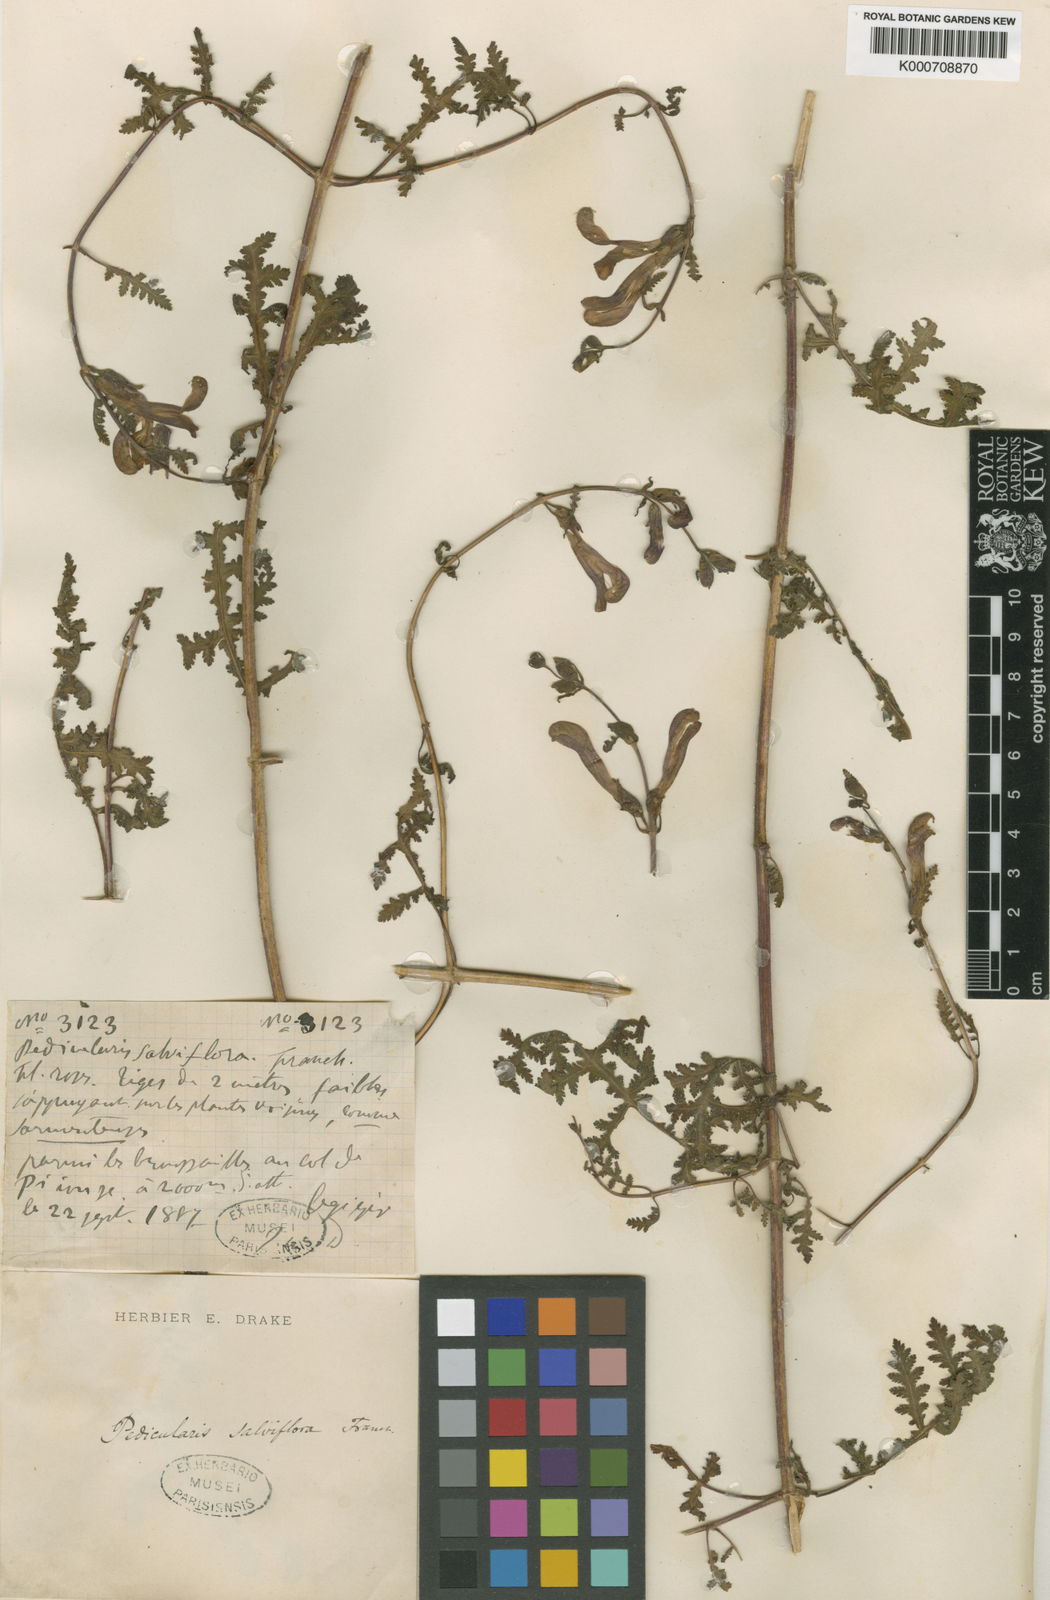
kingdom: Plantae
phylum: Tracheophyta
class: Magnoliopsida
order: Lamiales
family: Orobanchaceae
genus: Pedicularis
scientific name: Pedicularis
